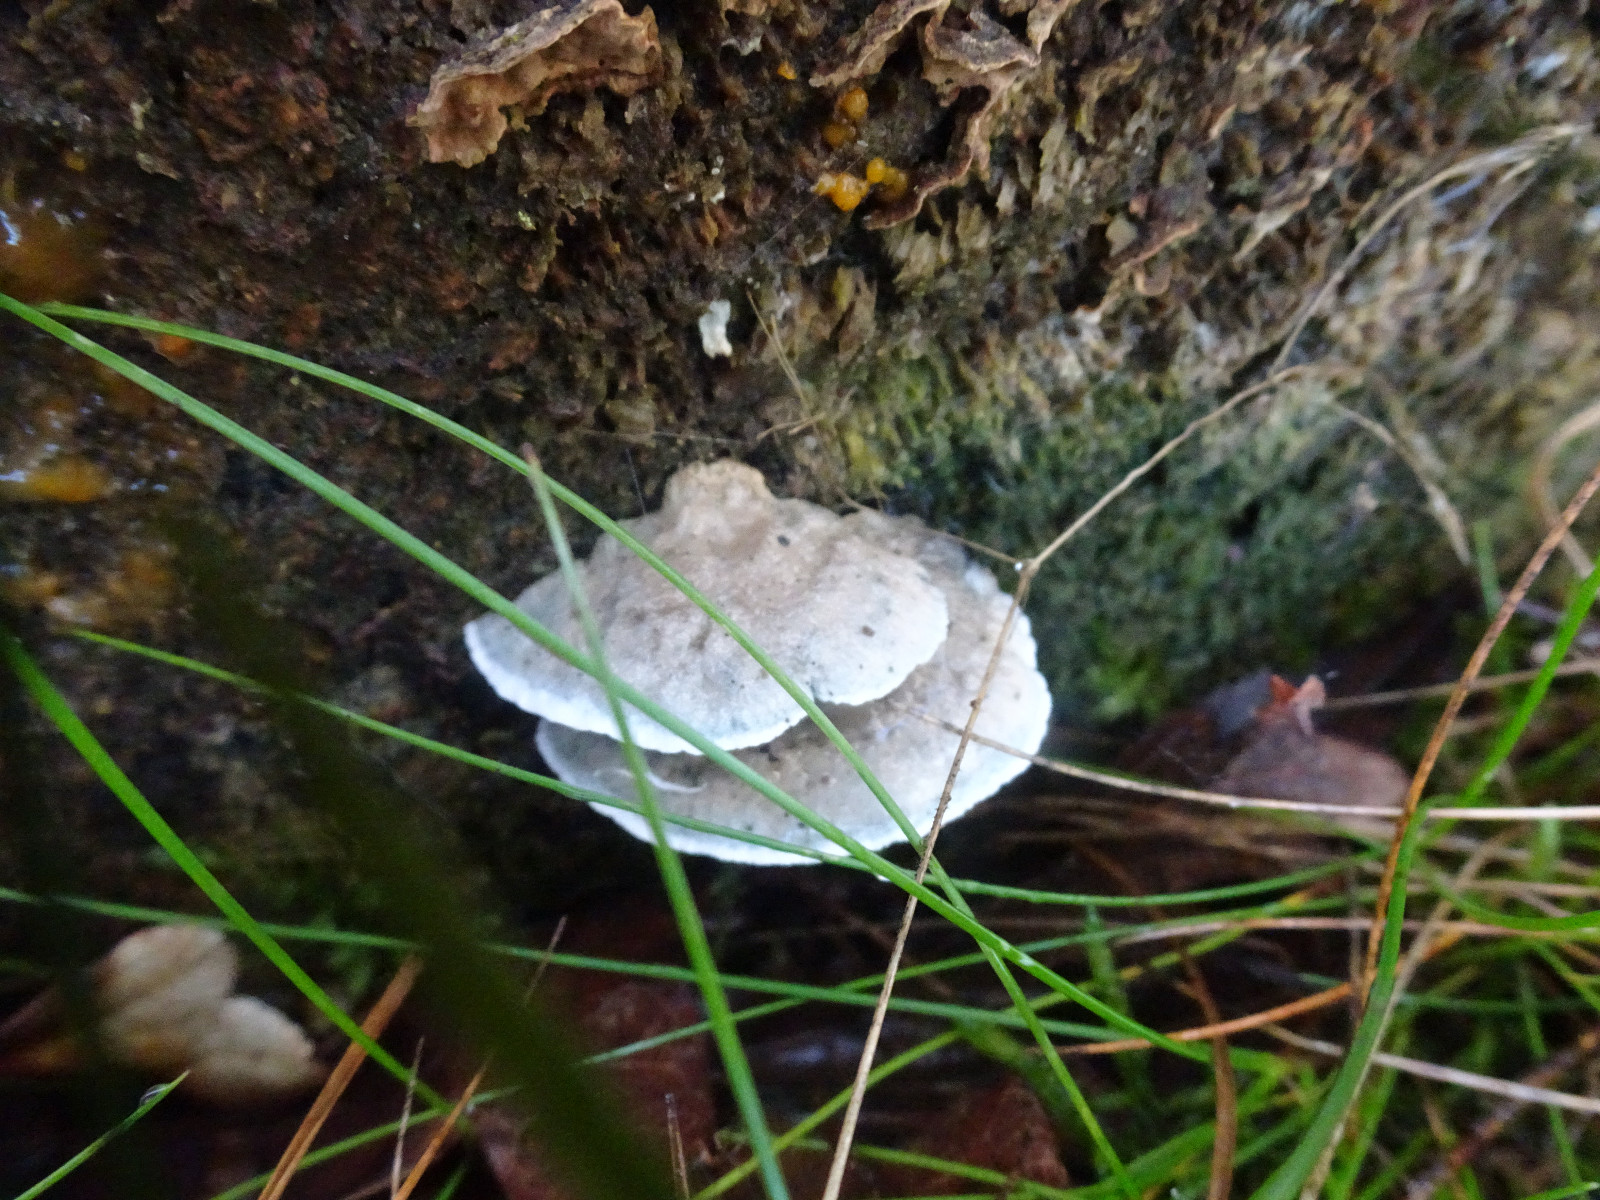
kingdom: Fungi
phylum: Basidiomycota
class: Agaricomycetes
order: Polyporales
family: Polyporaceae
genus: Cyanosporus
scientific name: Cyanosporus alni
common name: blegblå kødporesvamp
